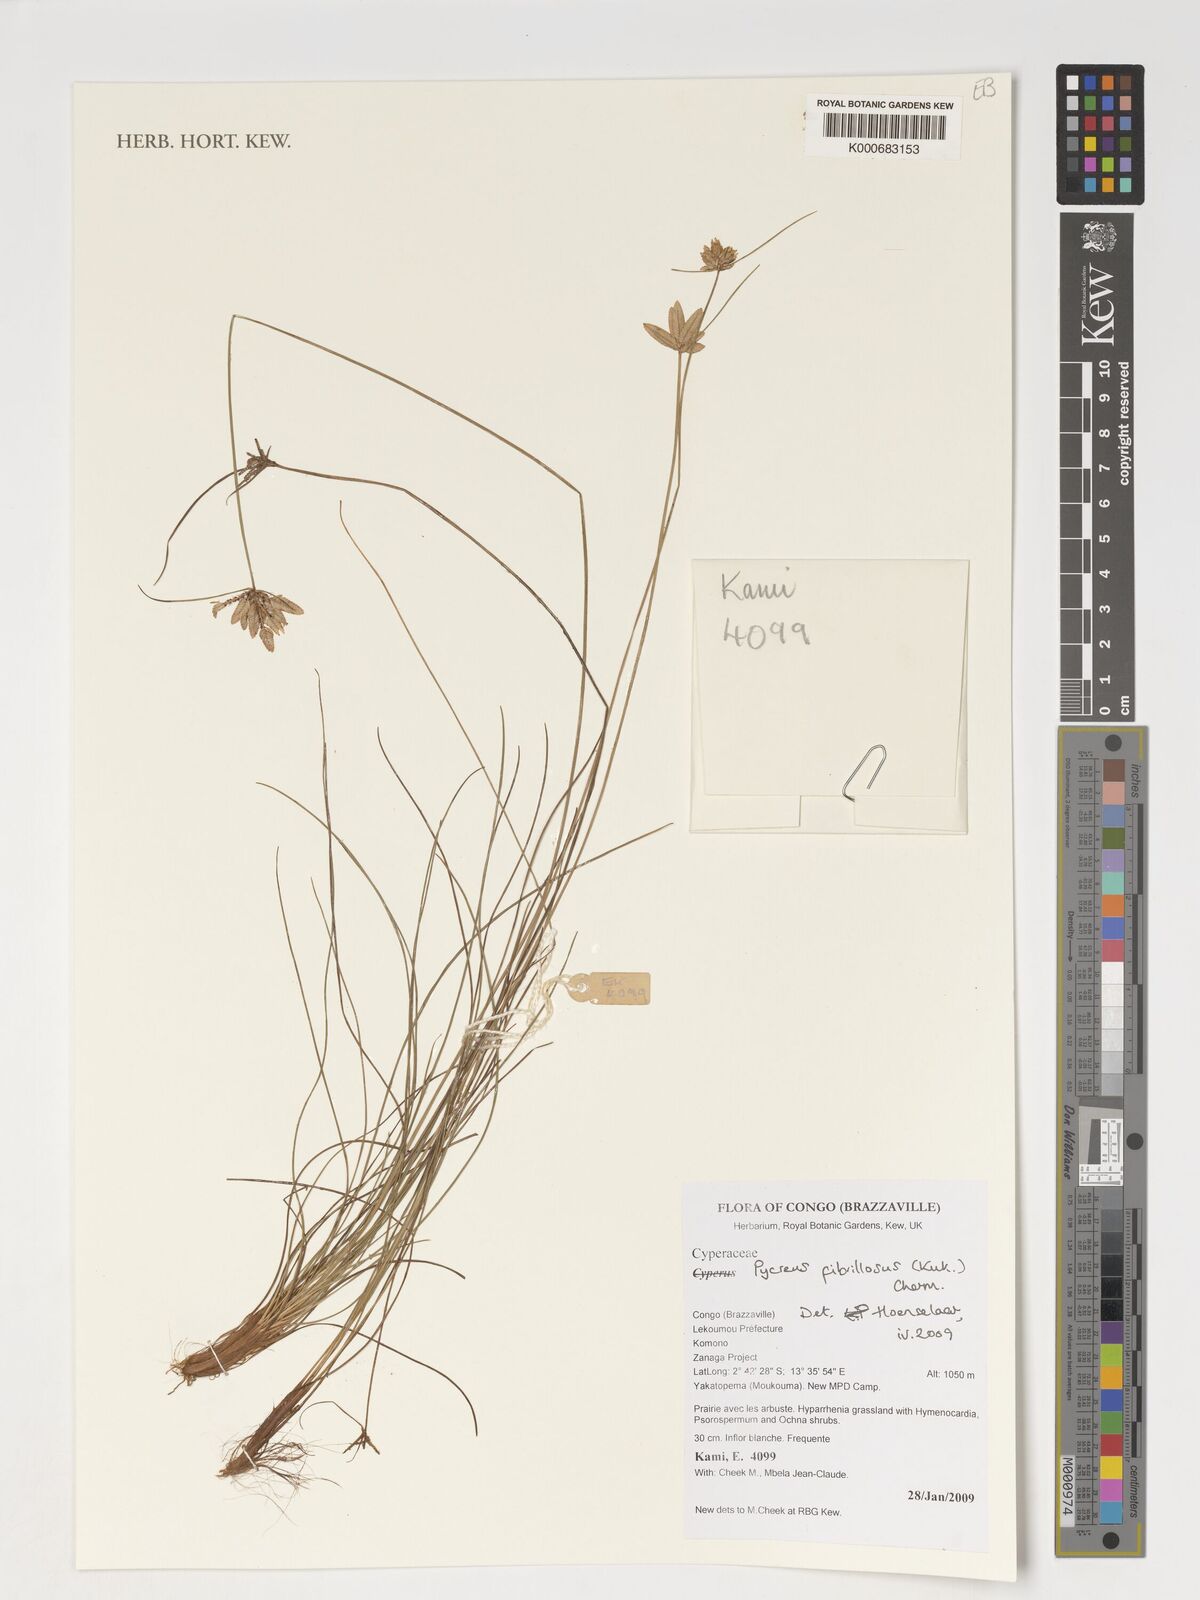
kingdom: Plantae
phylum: Tracheophyta
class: Liliopsida
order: Poales
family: Cyperaceae
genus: Cyperus
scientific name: Cyperus nigricans
